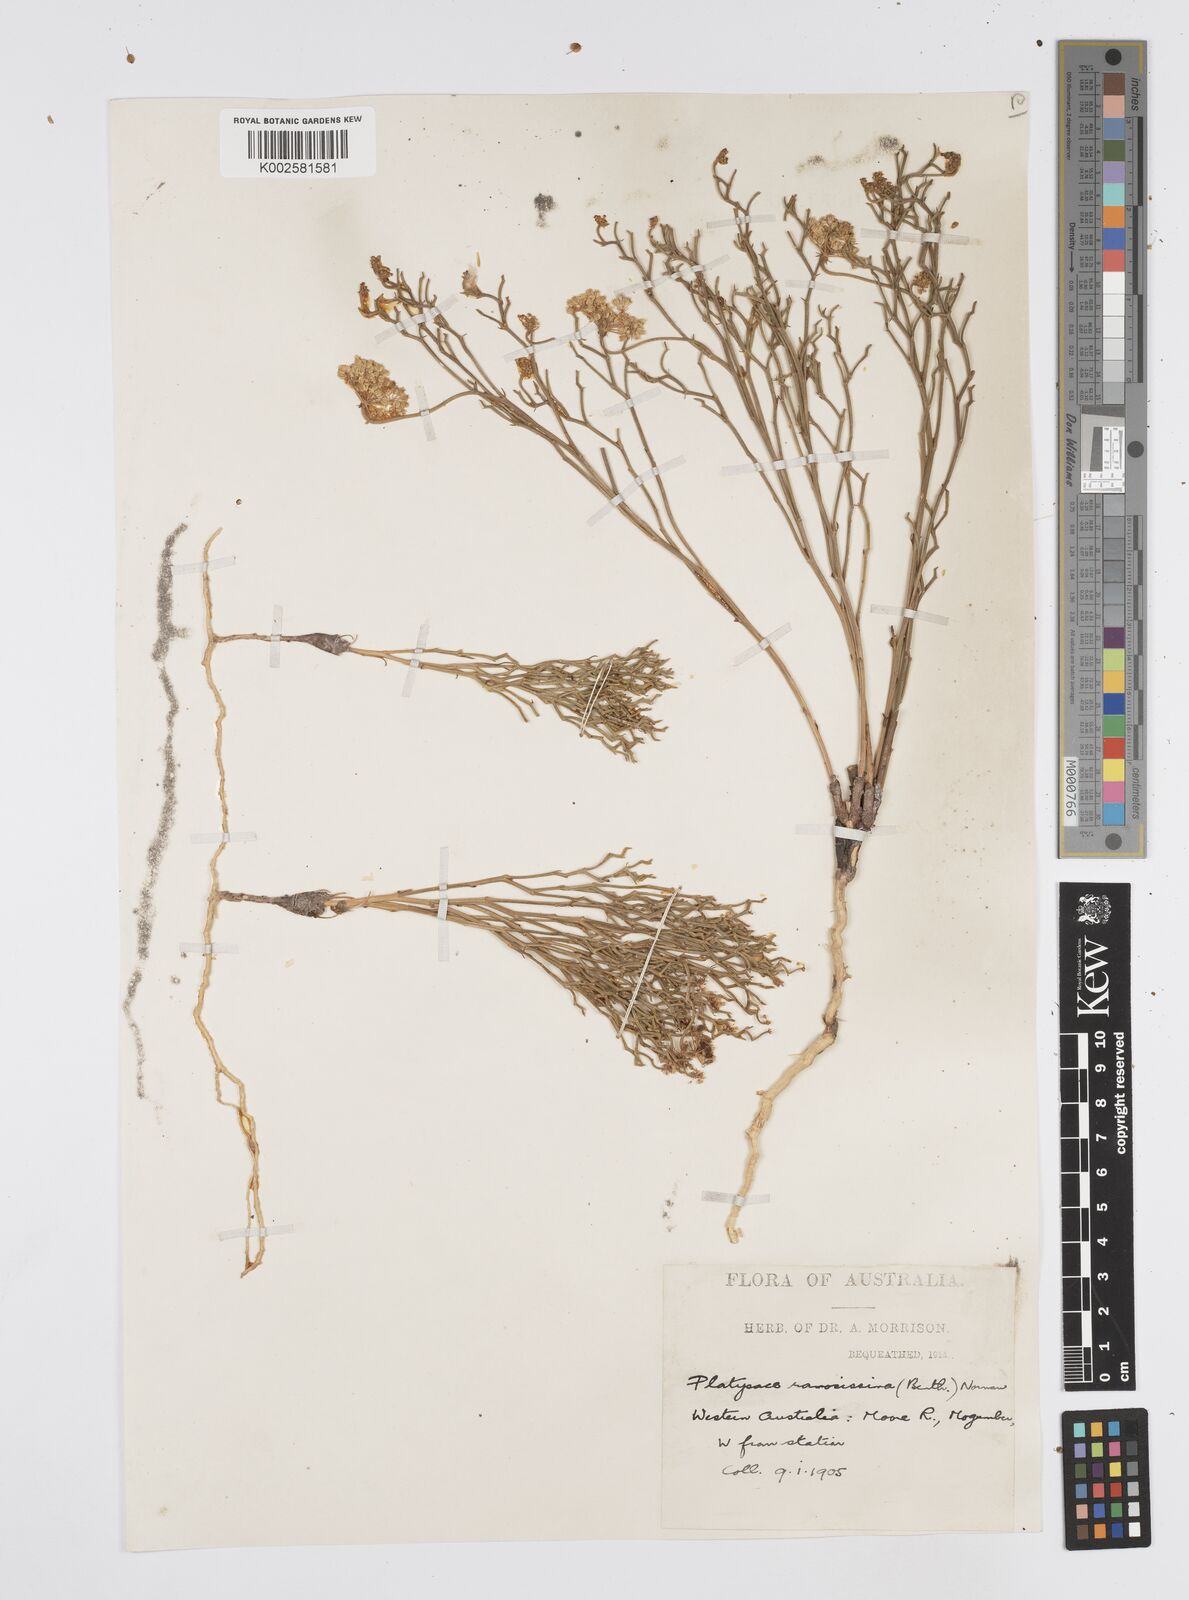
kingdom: Plantae
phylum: Tracheophyta
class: Magnoliopsida
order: Apiales
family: Apiaceae
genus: Platysace
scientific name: Platysace ramosissima
